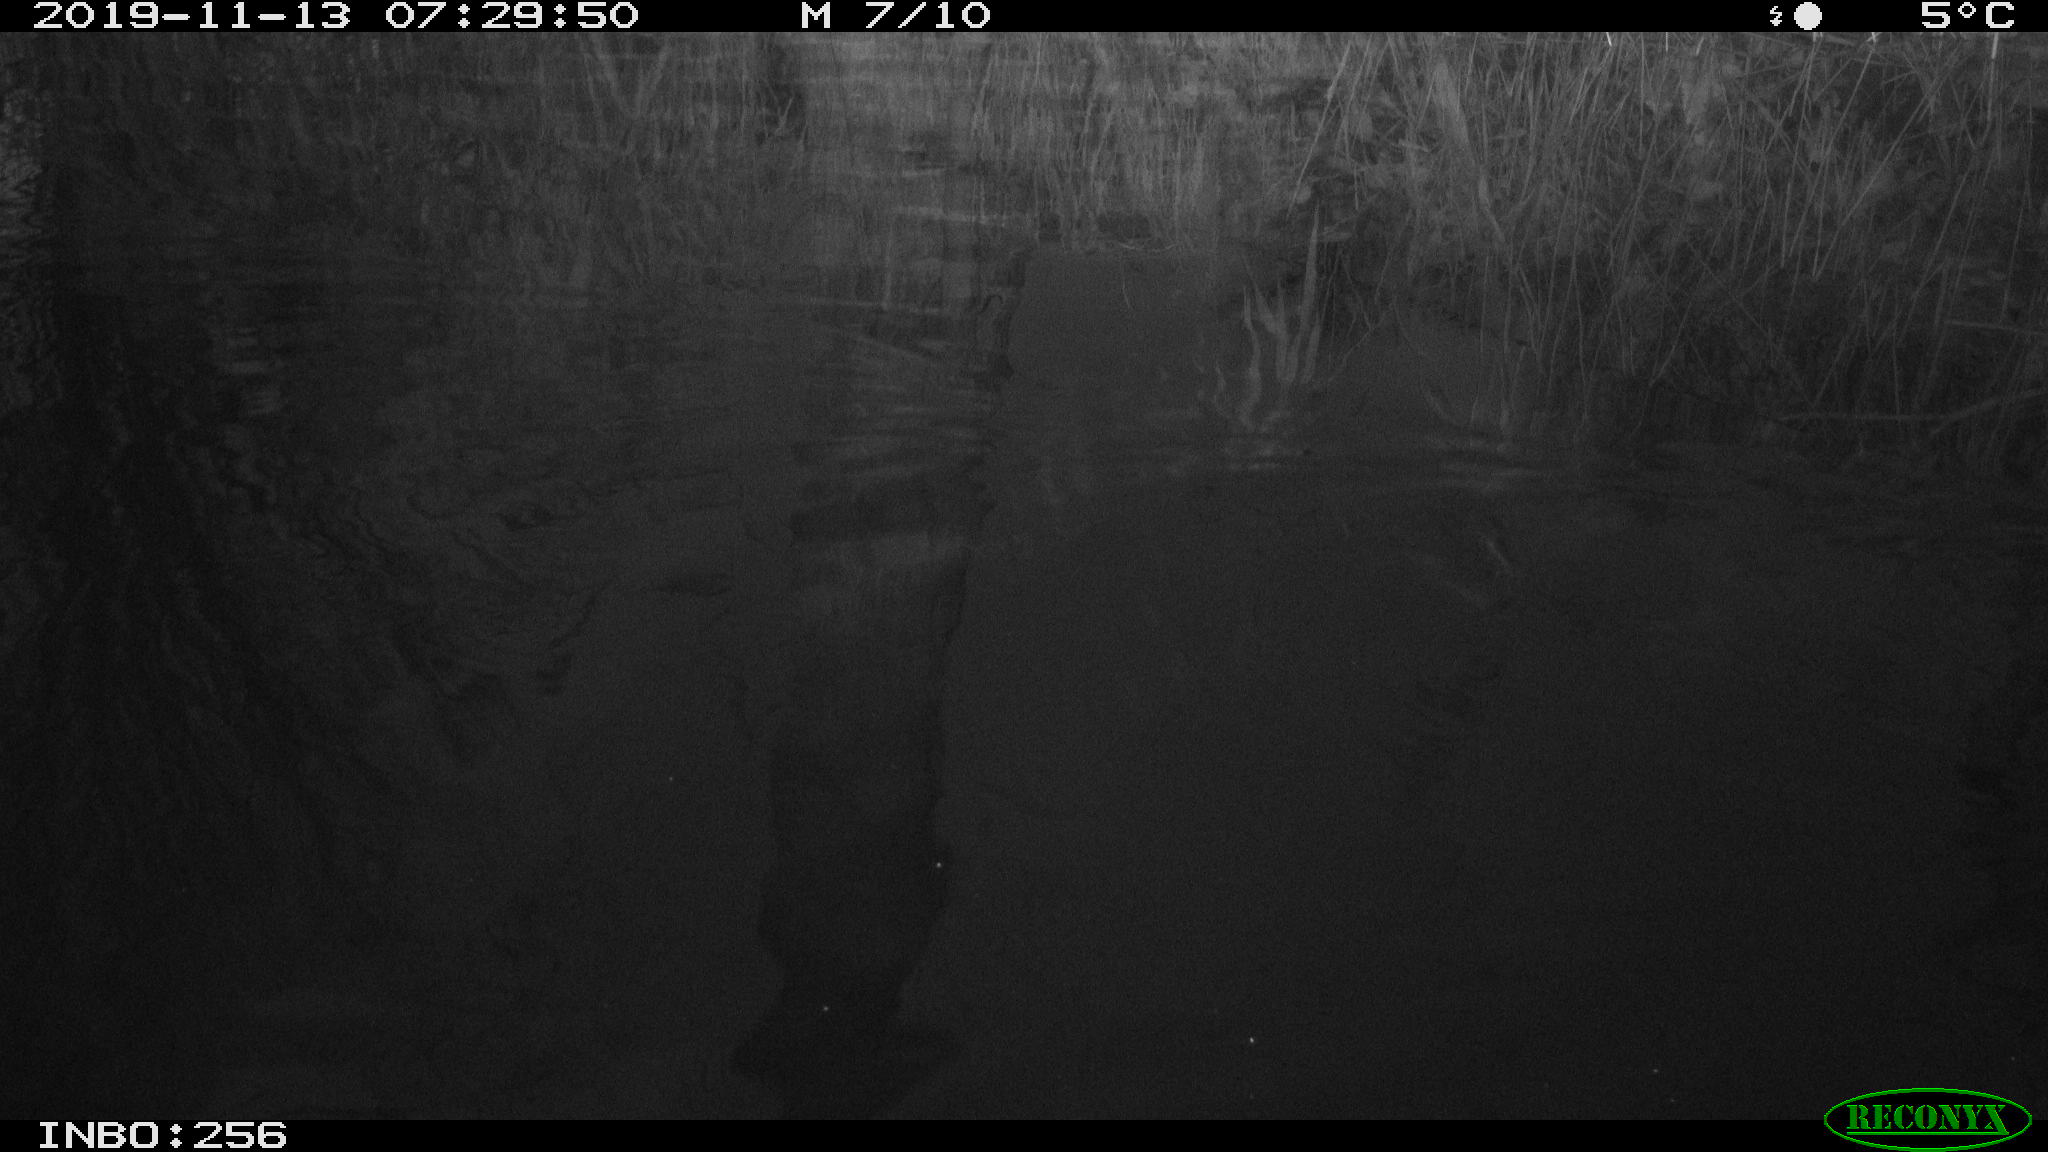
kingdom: Animalia
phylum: Chordata
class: Mammalia
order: Rodentia
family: Muridae
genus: Rattus
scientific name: Rattus norvegicus
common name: Brown rat
